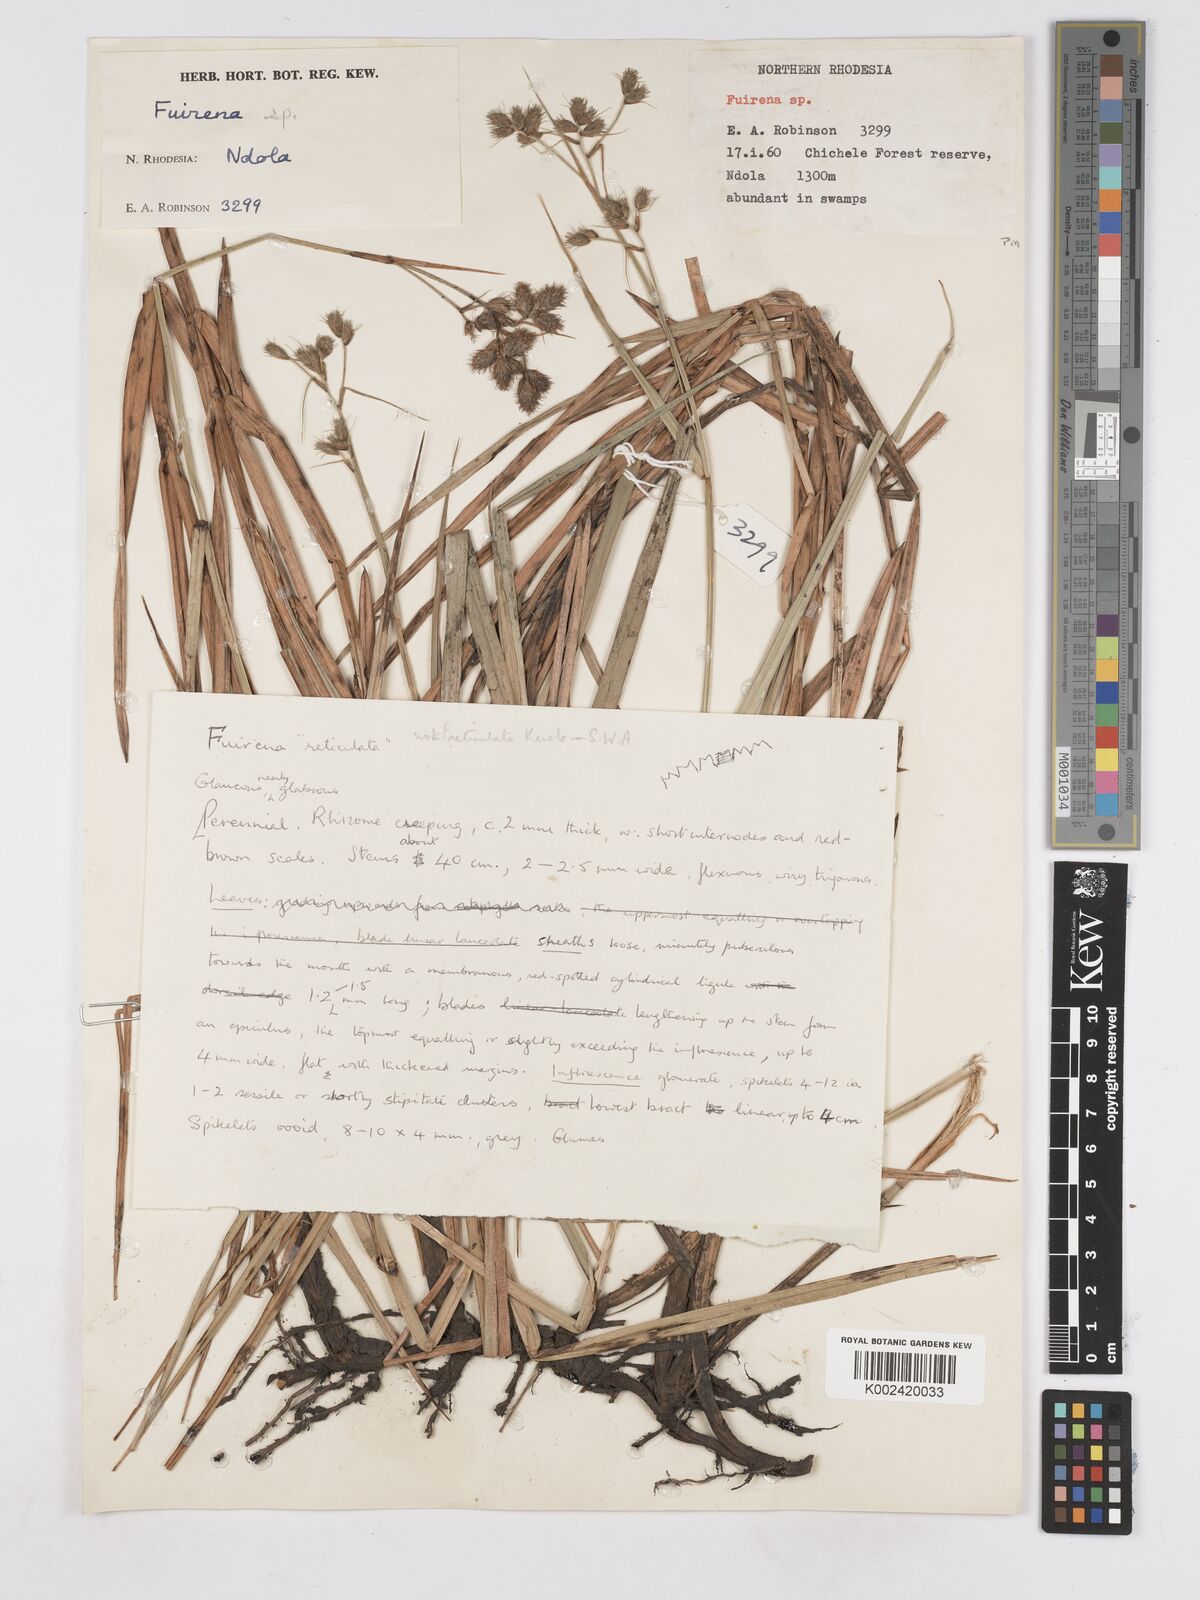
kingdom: Plantae
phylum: Tracheophyta
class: Liliopsida
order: Poales
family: Cyperaceae
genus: Fuirena
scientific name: Fuirena
